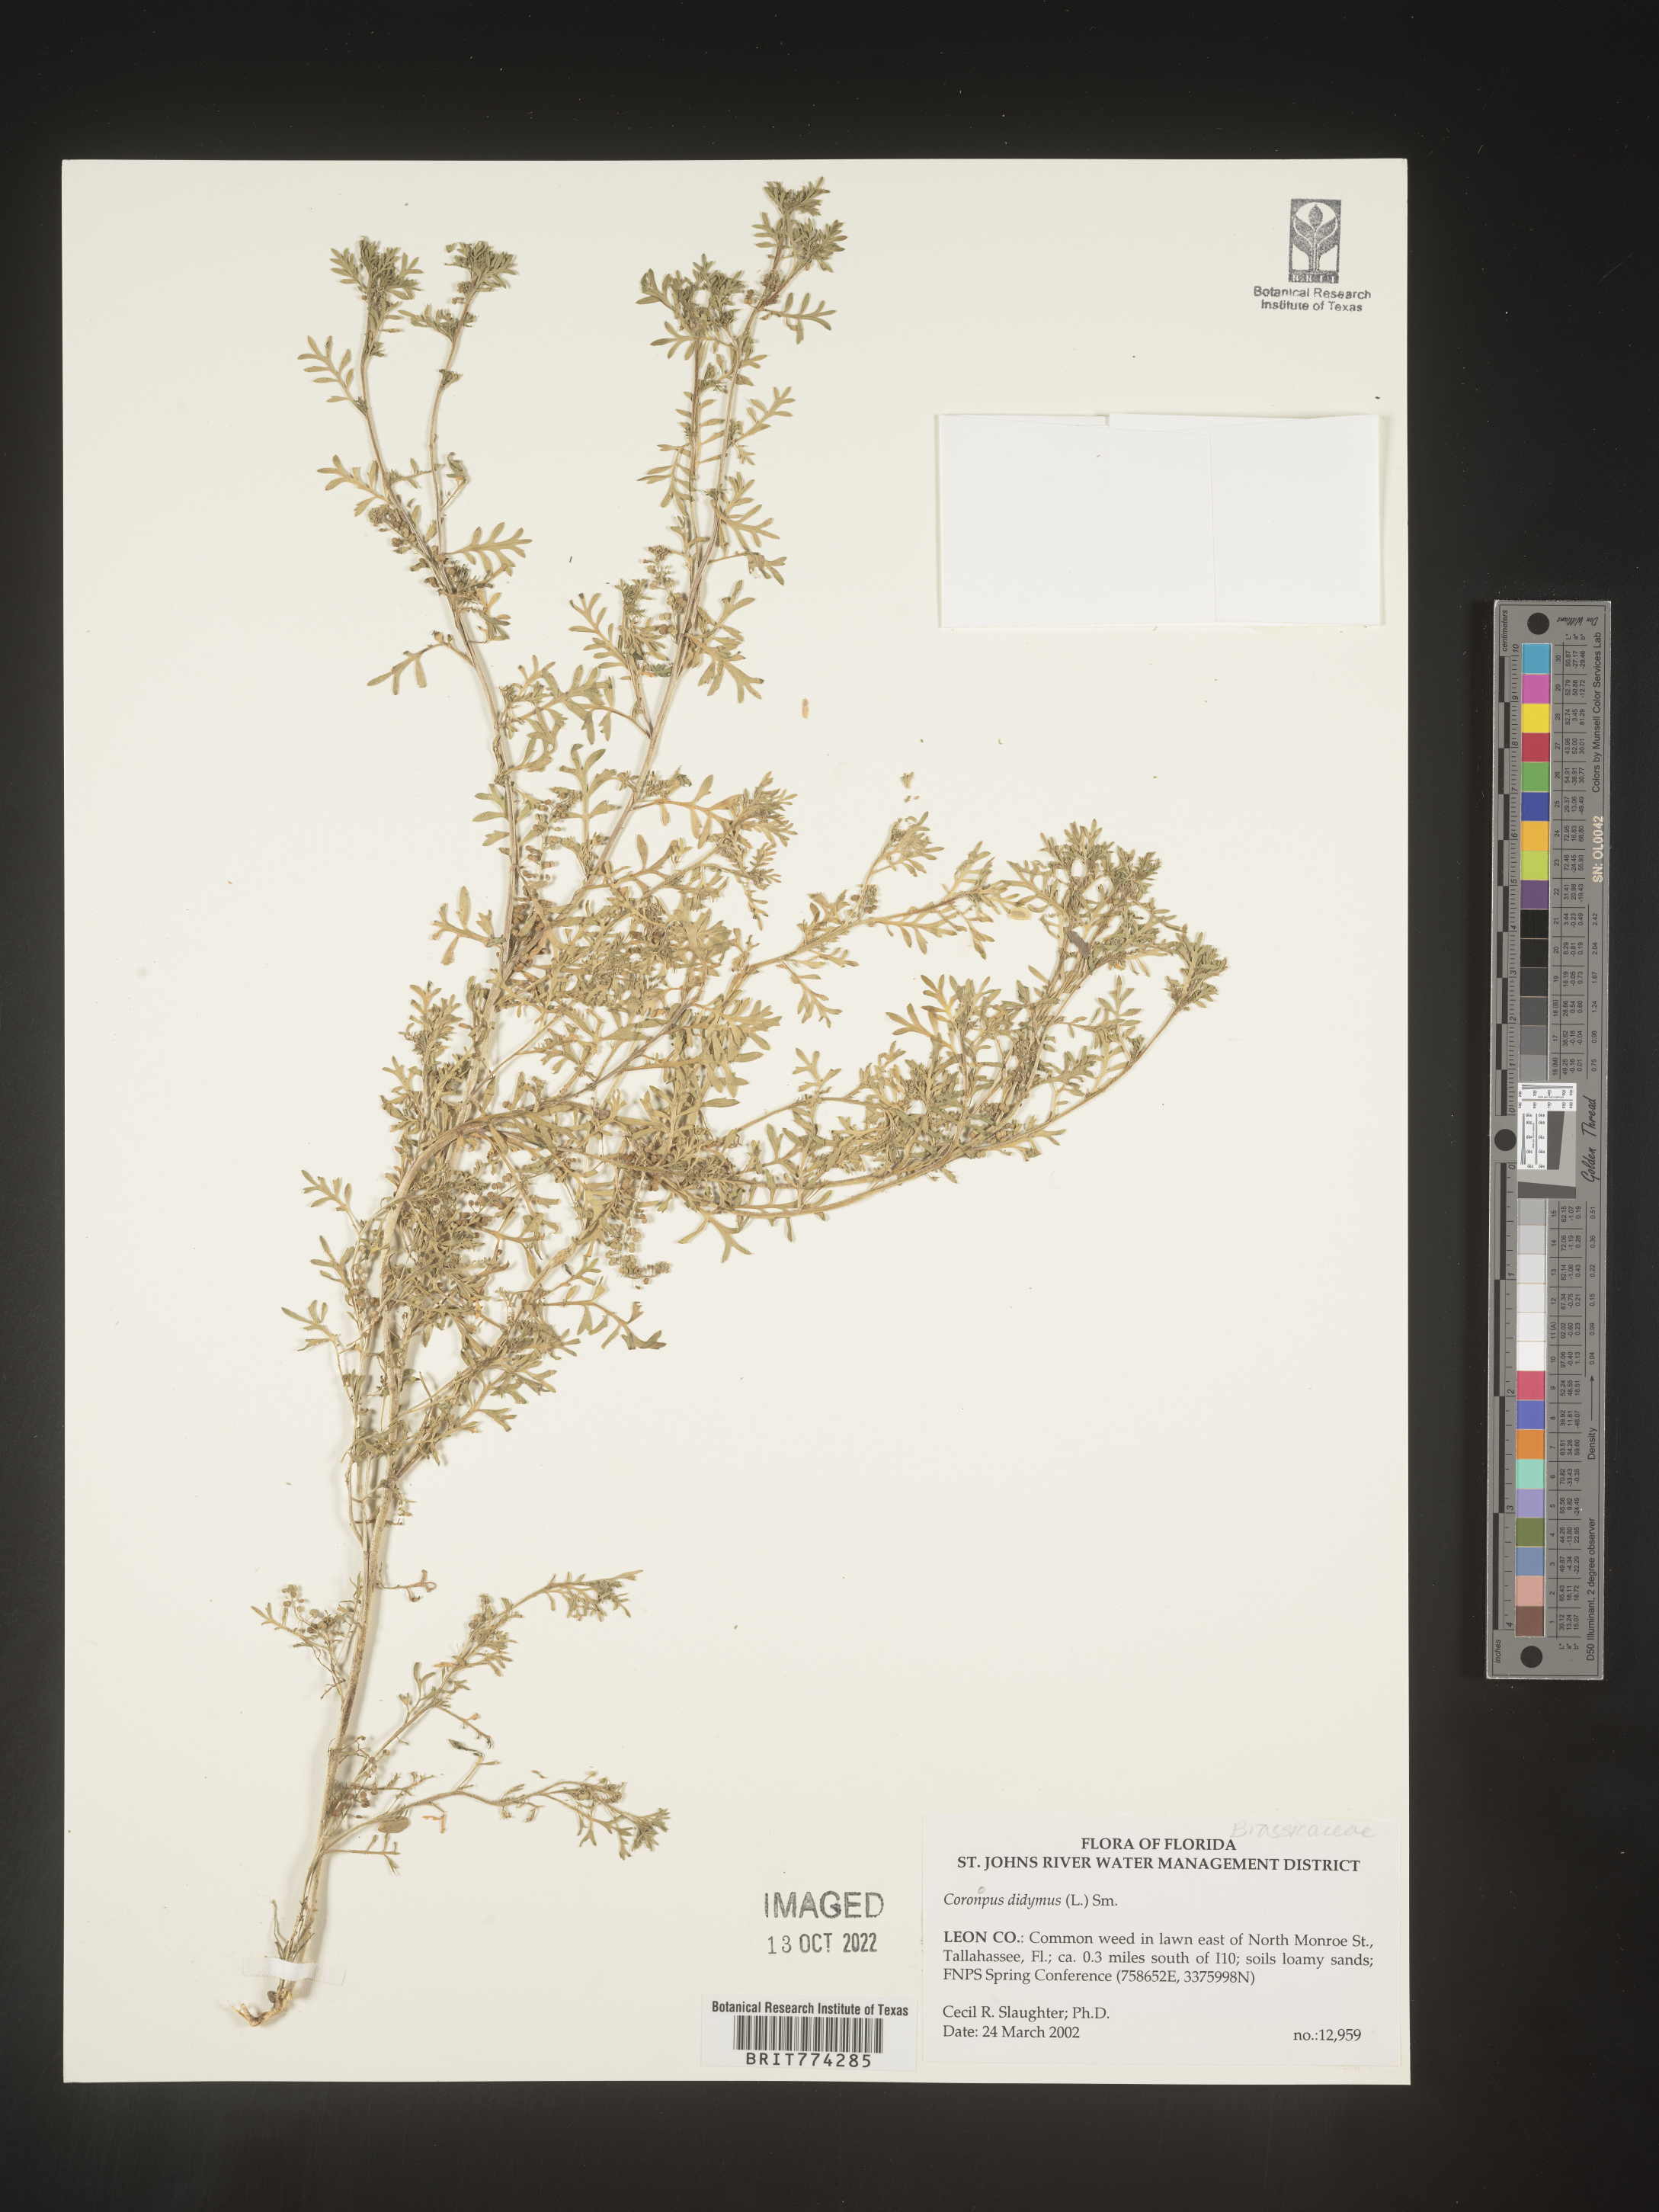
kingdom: Plantae
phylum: Tracheophyta
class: Magnoliopsida
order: Brassicales
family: Brassicaceae
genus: Coronopus
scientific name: Coronopus
